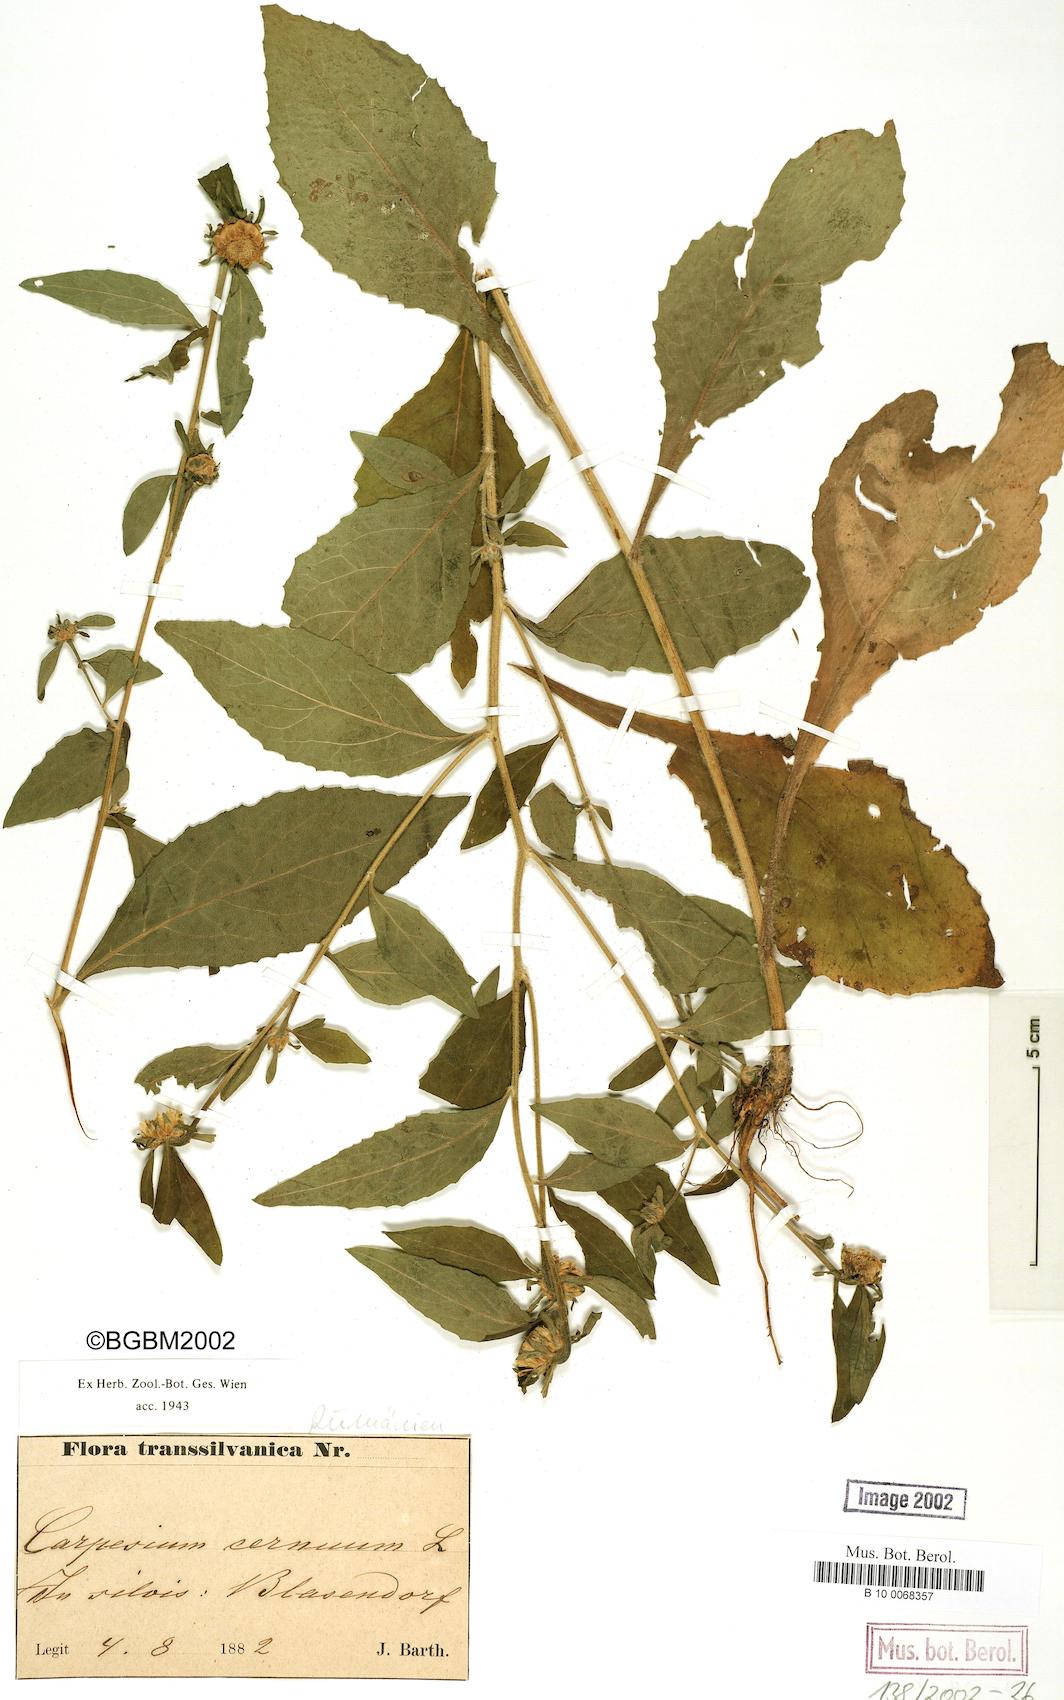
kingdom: Plantae
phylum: Tracheophyta
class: Magnoliopsida
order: Asterales
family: Asteraceae
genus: Carpesium
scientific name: Carpesium cernuum
